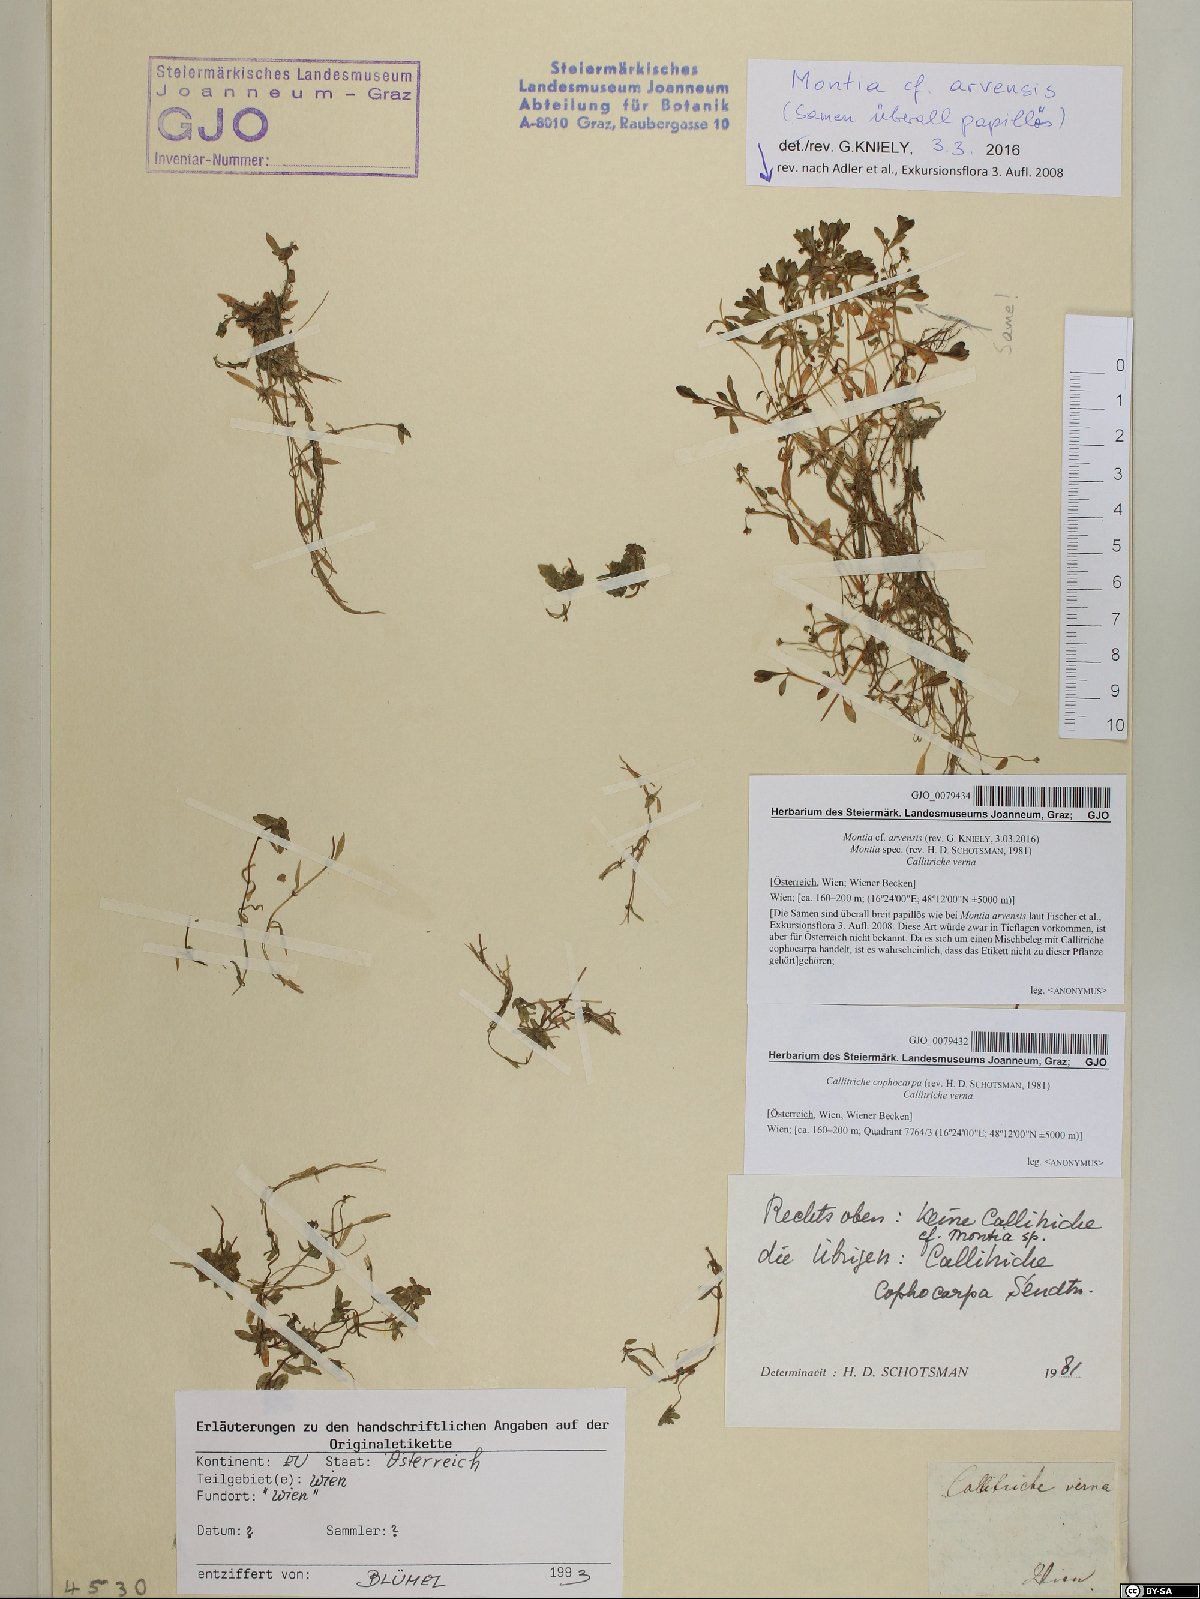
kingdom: Plantae
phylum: Tracheophyta
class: Magnoliopsida
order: Lamiales
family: Plantaginaceae
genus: Callitriche
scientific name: Callitriche cophocarpa
